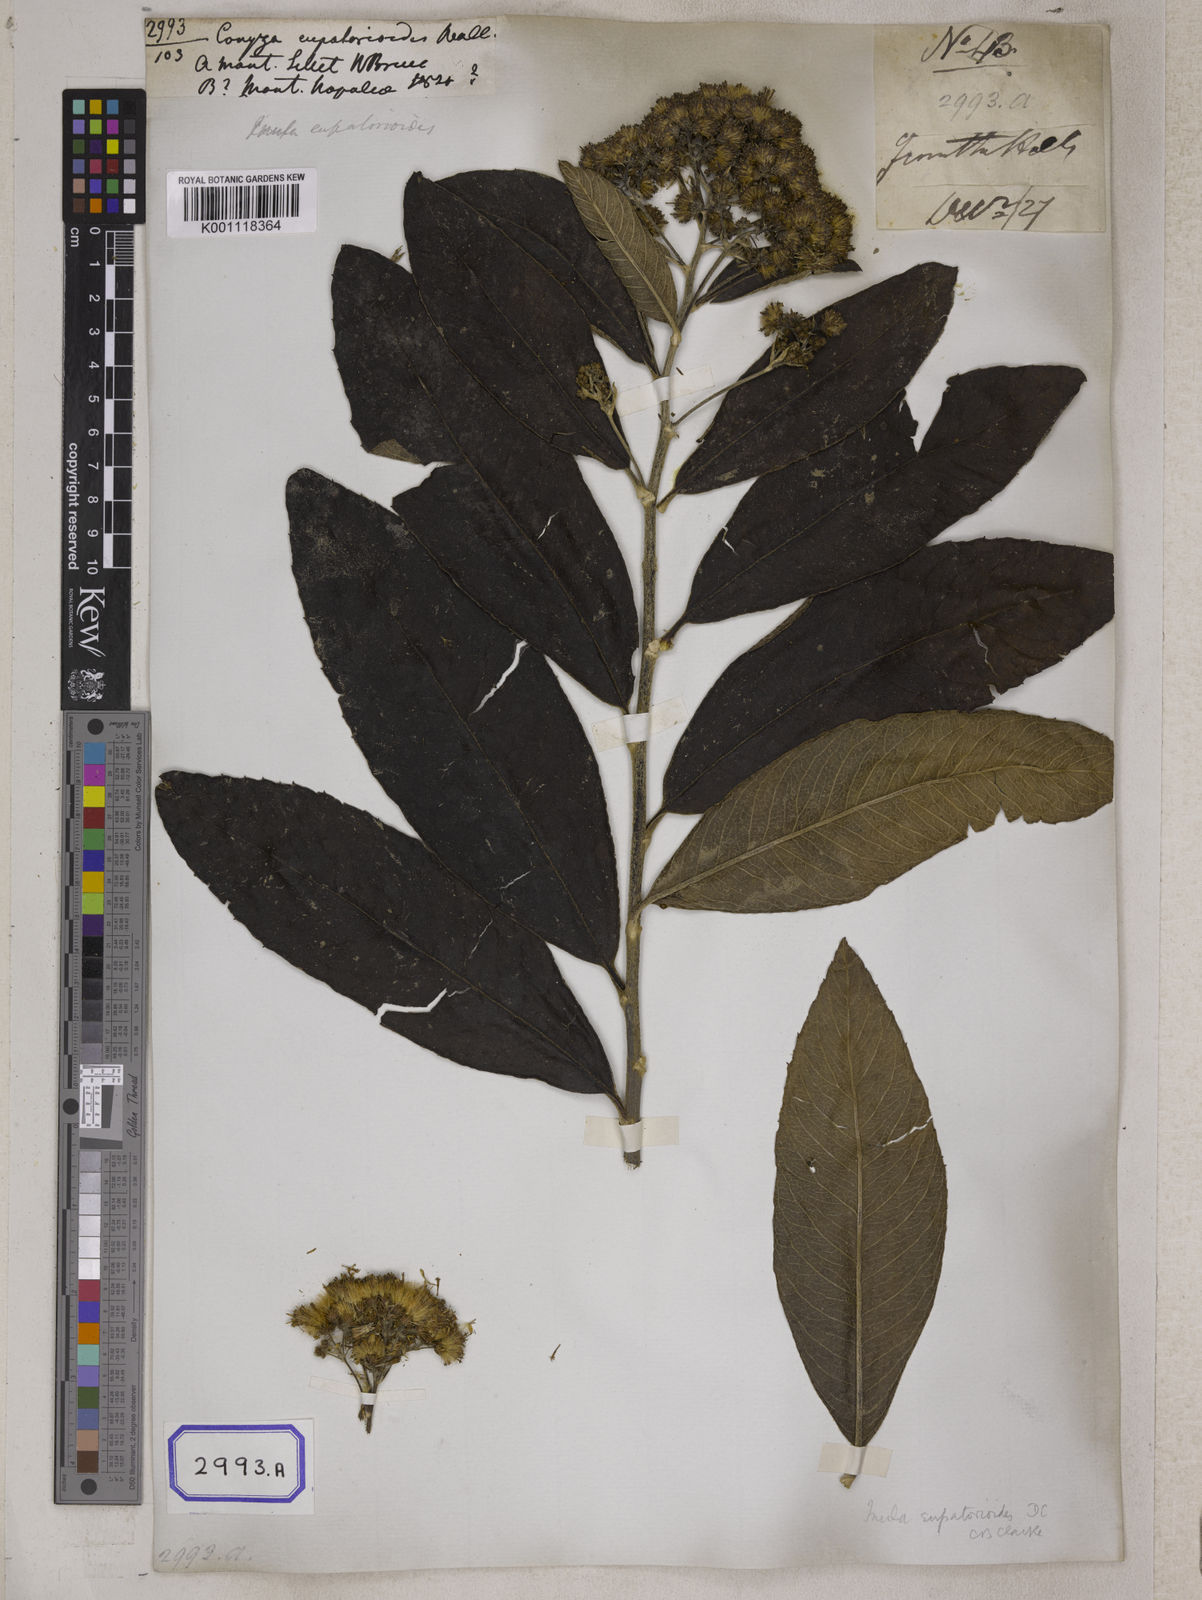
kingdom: Plantae
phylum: Tracheophyta
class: Magnoliopsida
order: Asterales
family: Asteraceae
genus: Duhaldea
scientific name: Duhaldea eupatorioides
